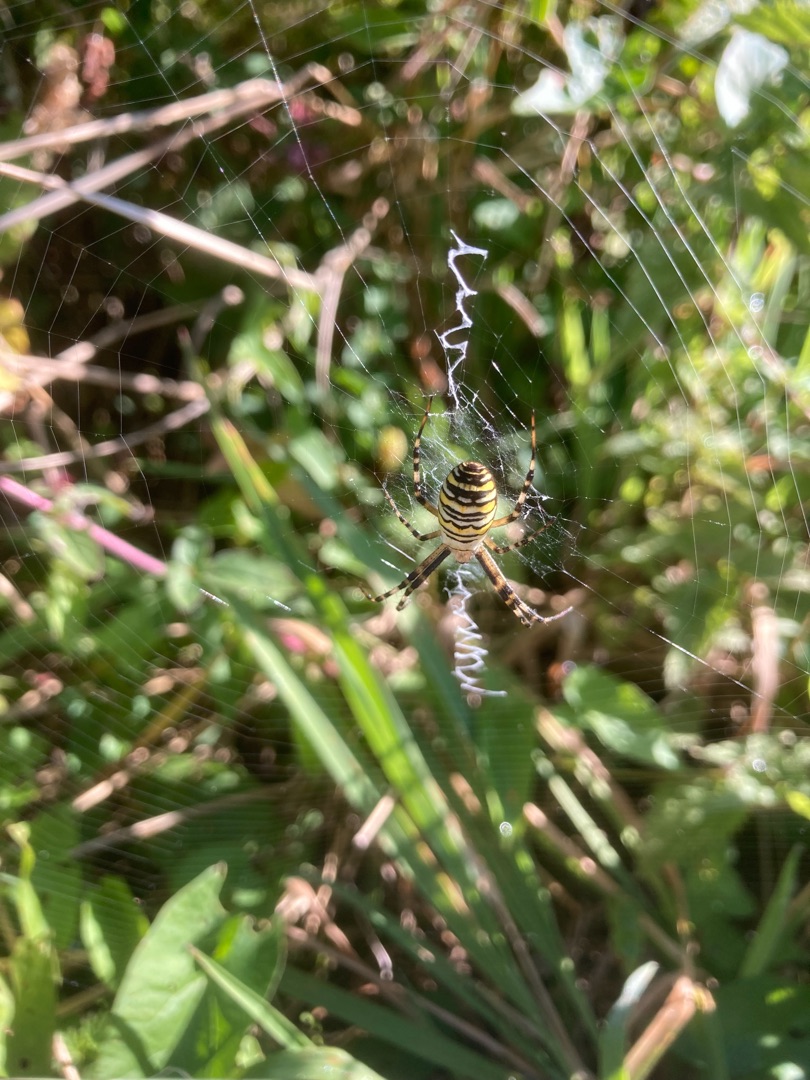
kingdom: Animalia
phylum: Arthropoda
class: Arachnida
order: Araneae
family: Araneidae
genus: Argiope
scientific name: Argiope bruennichi
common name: Hvepseedderkop
